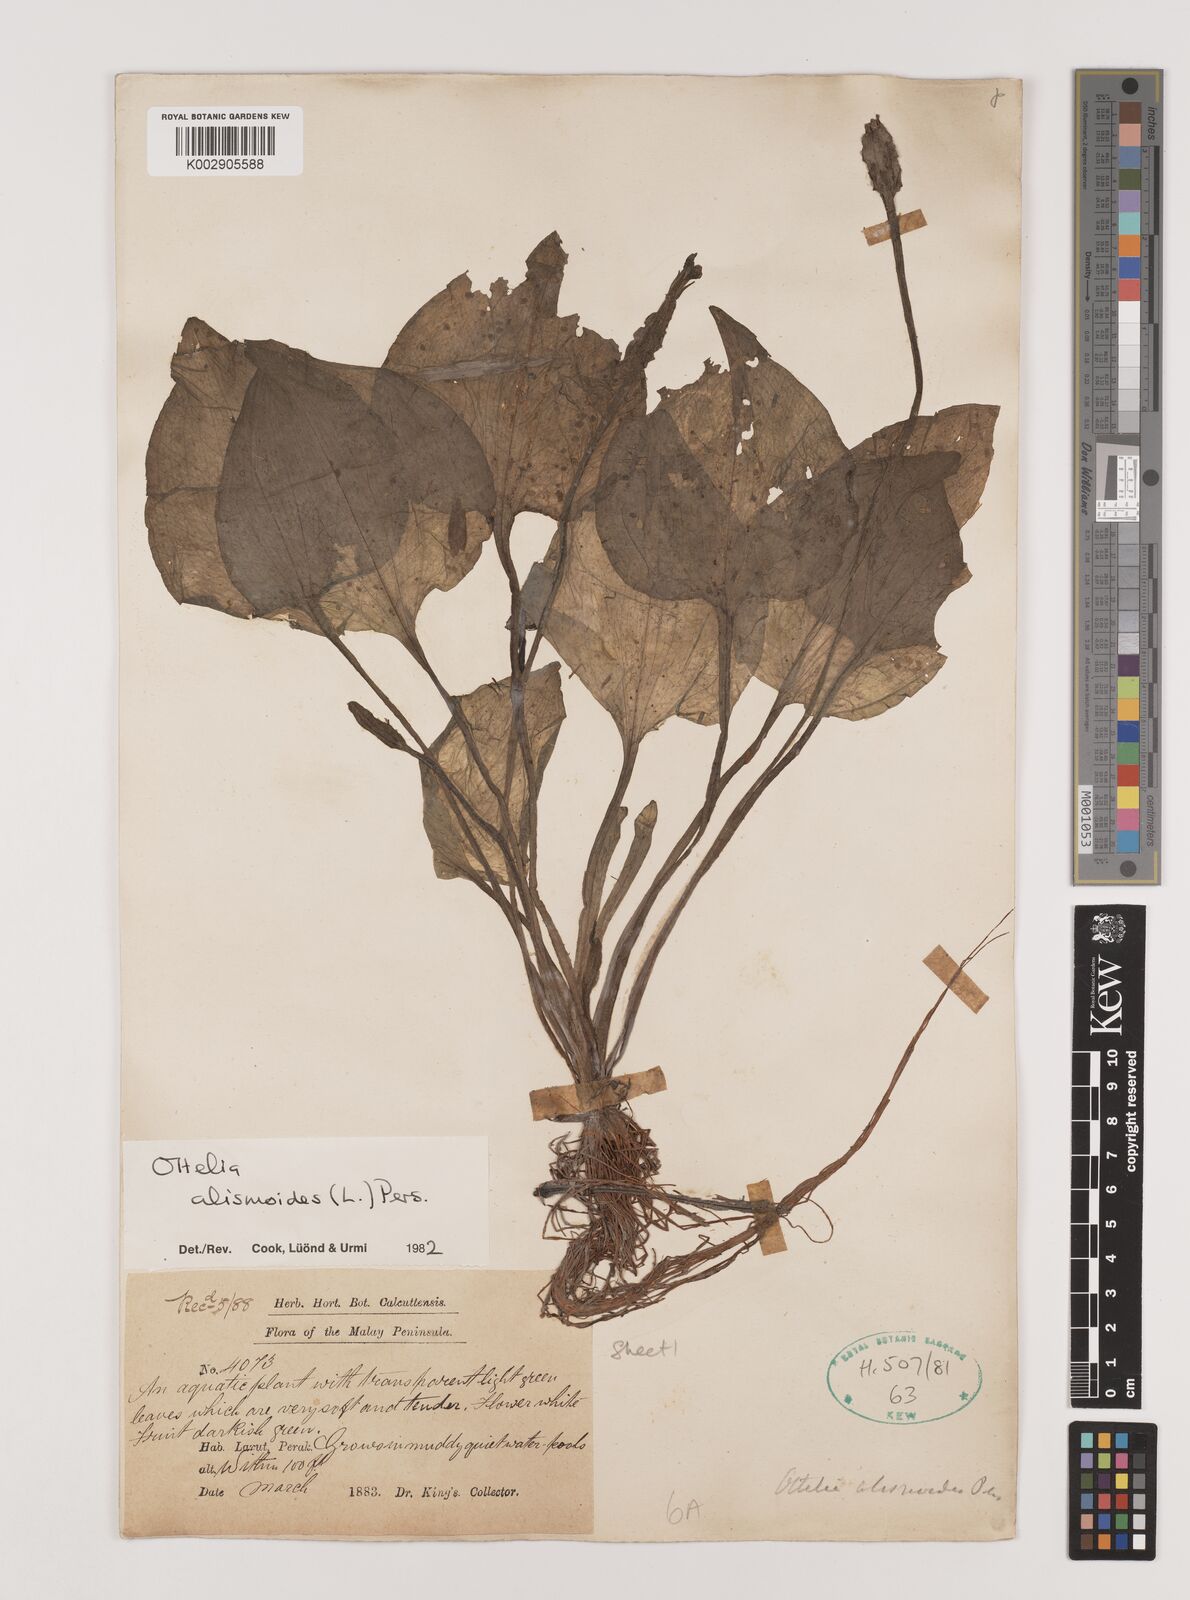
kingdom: Plantae
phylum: Tracheophyta
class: Liliopsida
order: Alismatales
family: Hydrocharitaceae
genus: Ottelia
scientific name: Ottelia alismoides
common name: Duck-lettuce
